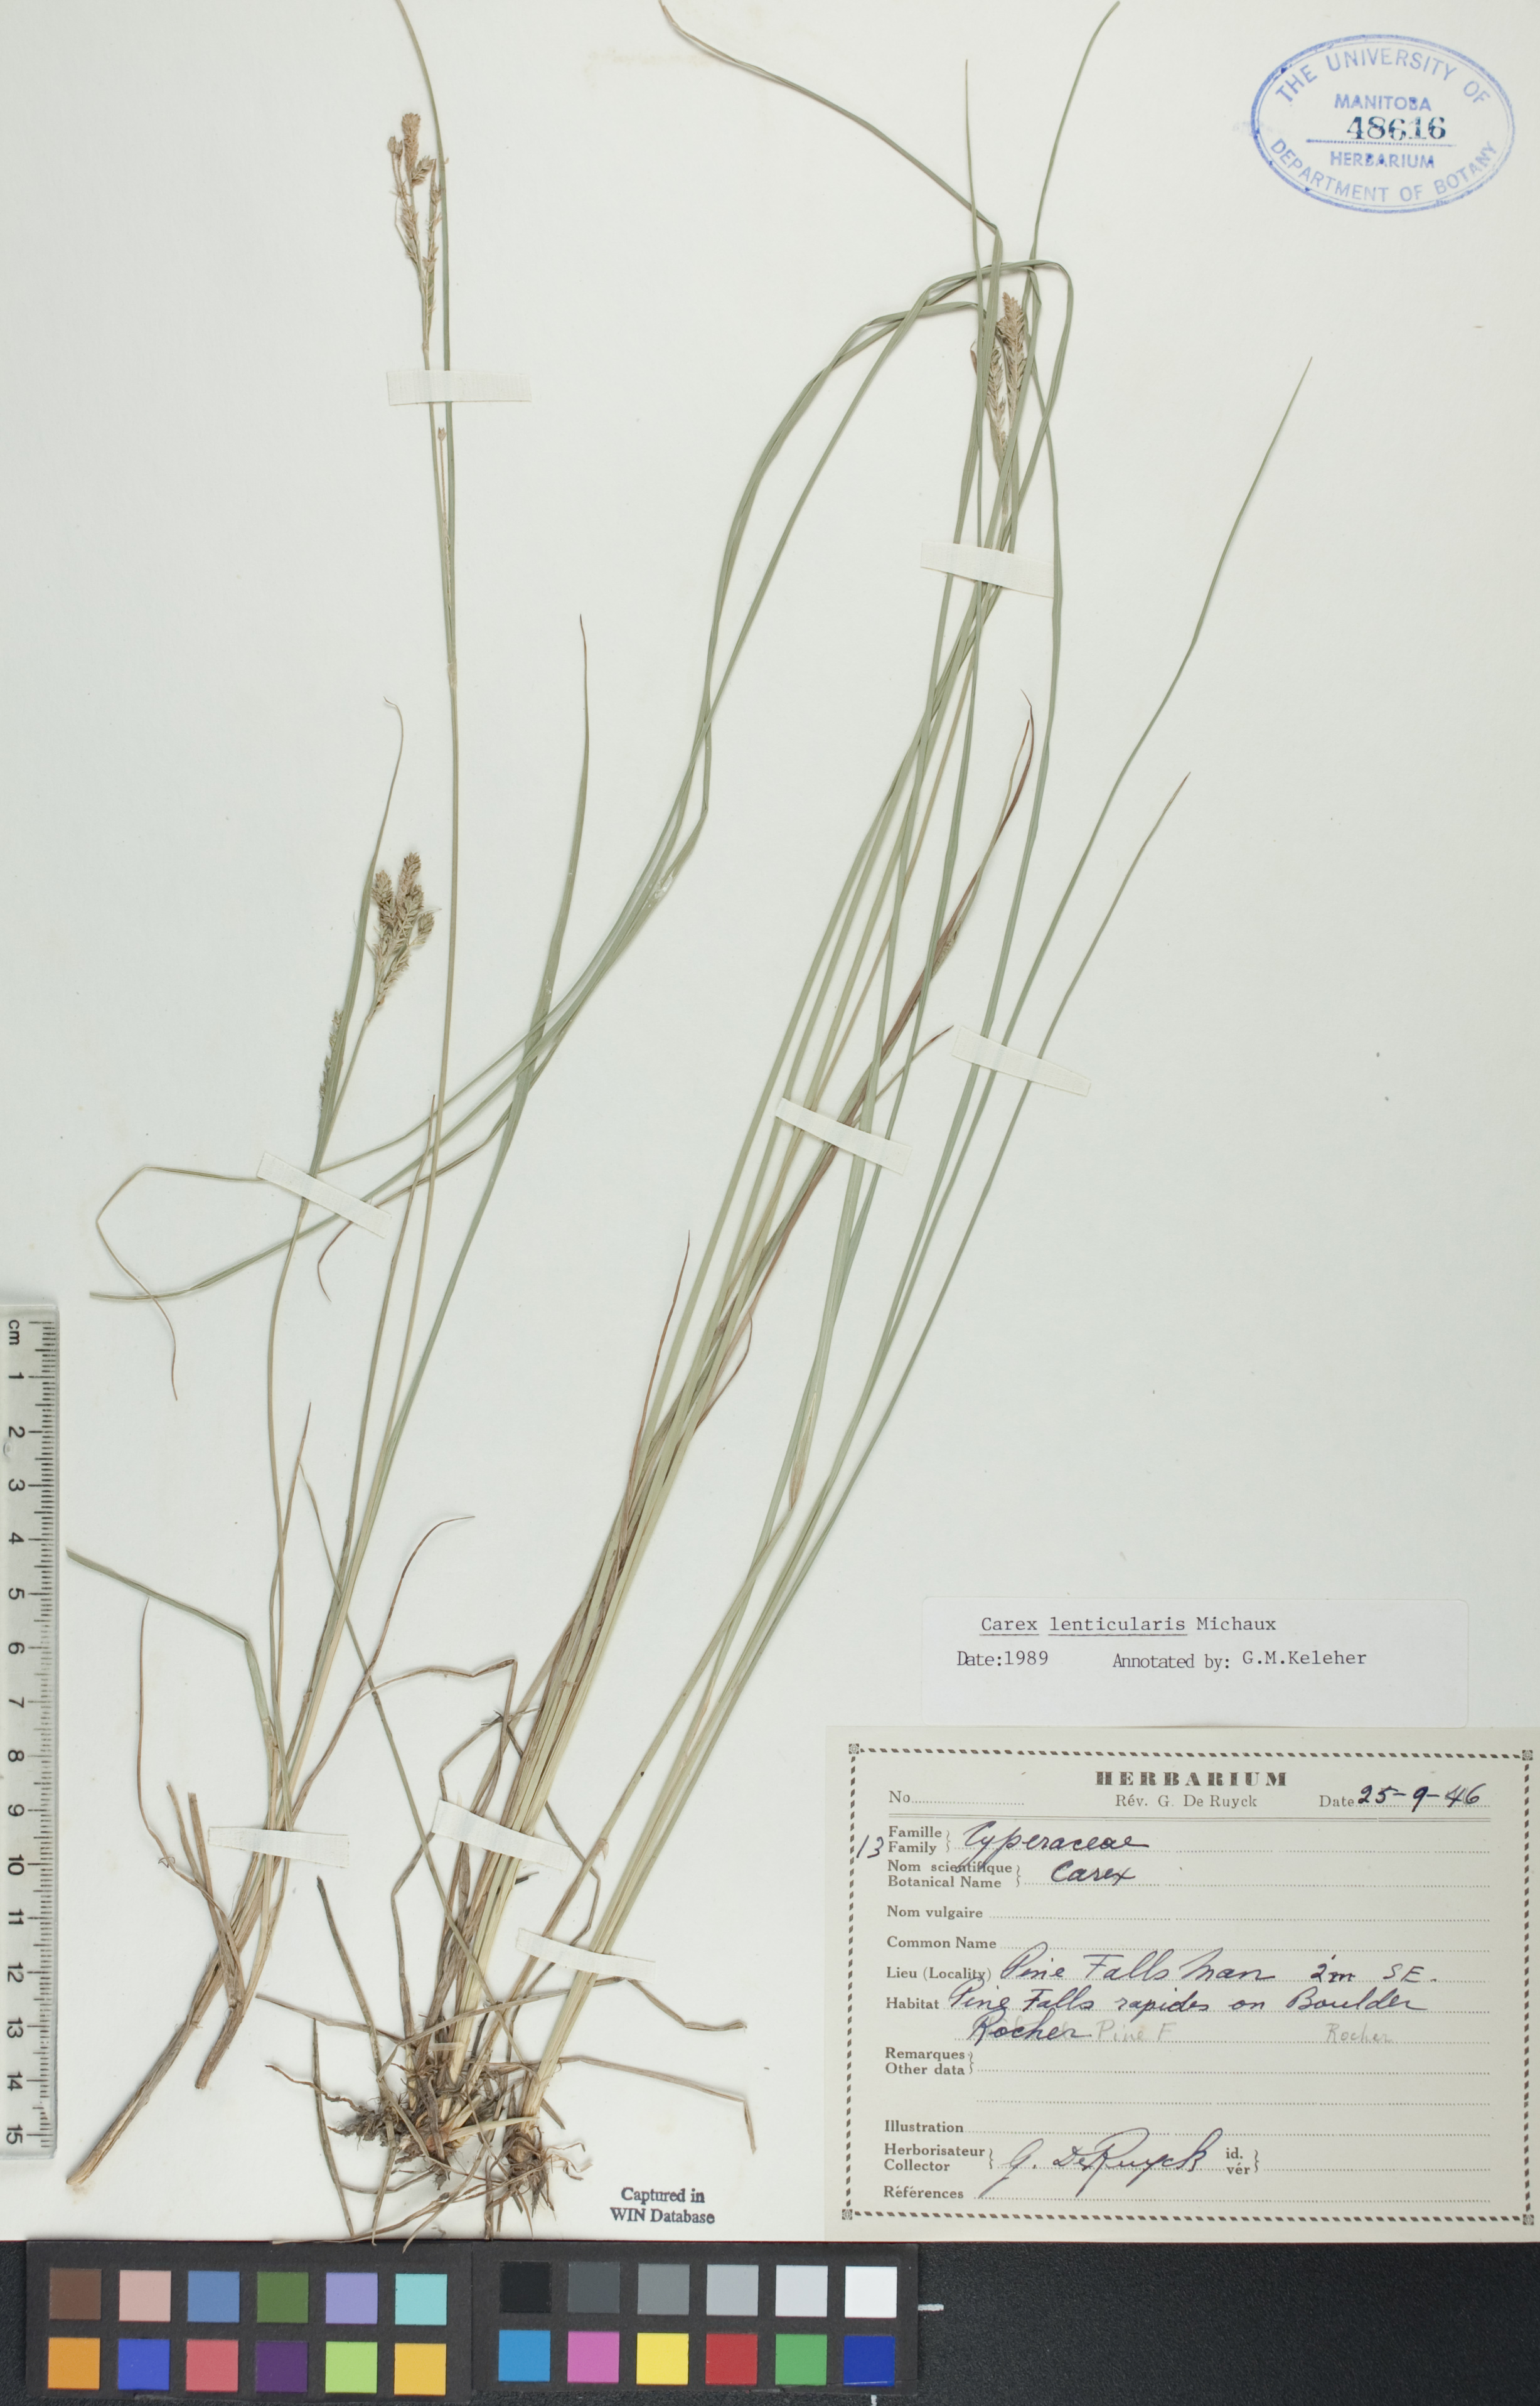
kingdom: Plantae
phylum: Tracheophyta
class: Liliopsida
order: Poales
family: Cyperaceae
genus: Carex
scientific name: Carex lenticularis
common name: Lakeshore sedge
